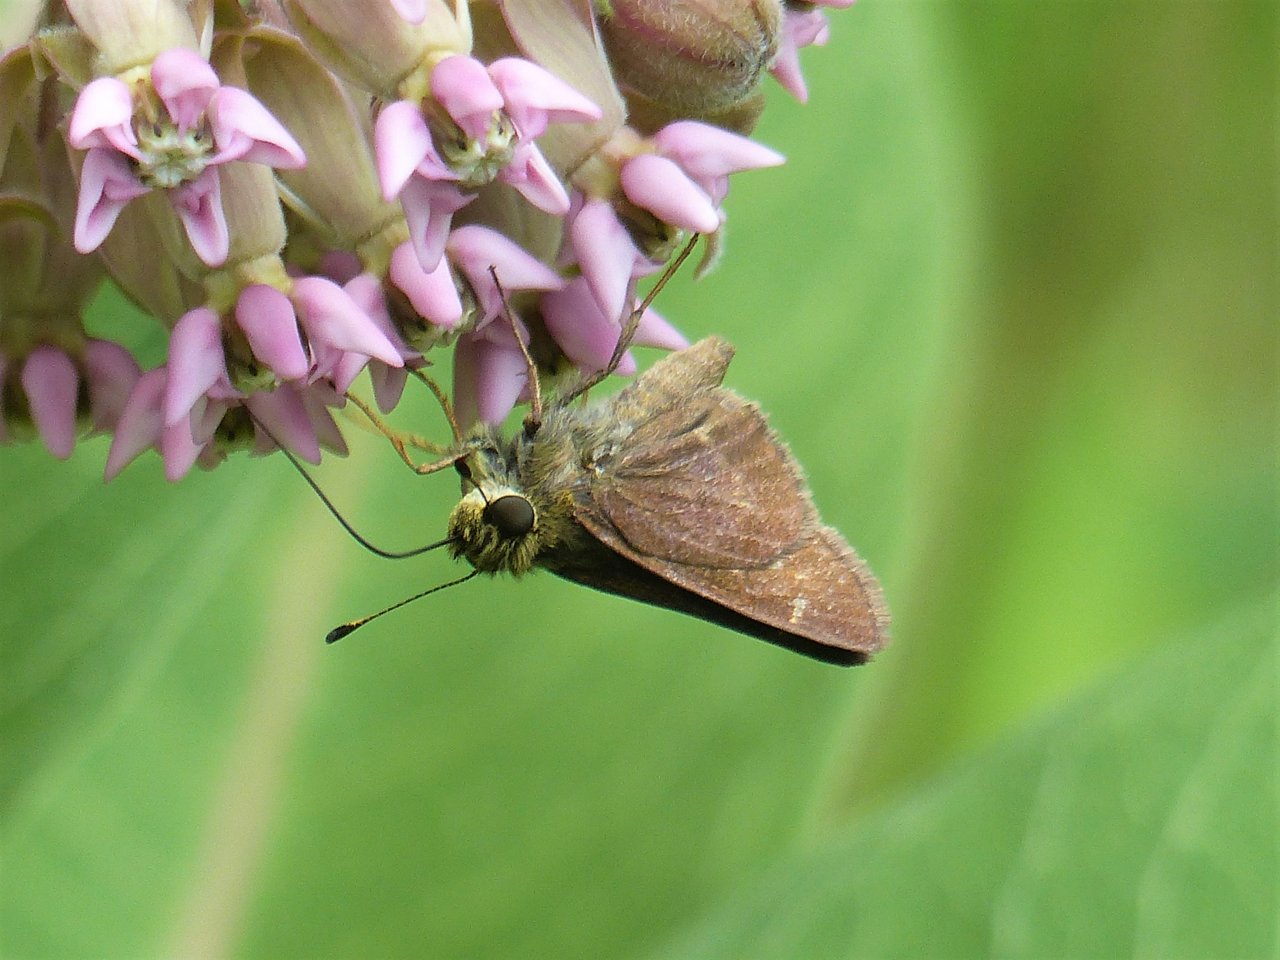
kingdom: Animalia
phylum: Arthropoda
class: Insecta
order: Lepidoptera
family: Hesperiidae
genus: Euphyes
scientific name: Euphyes vestris
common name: Dun Skipper
